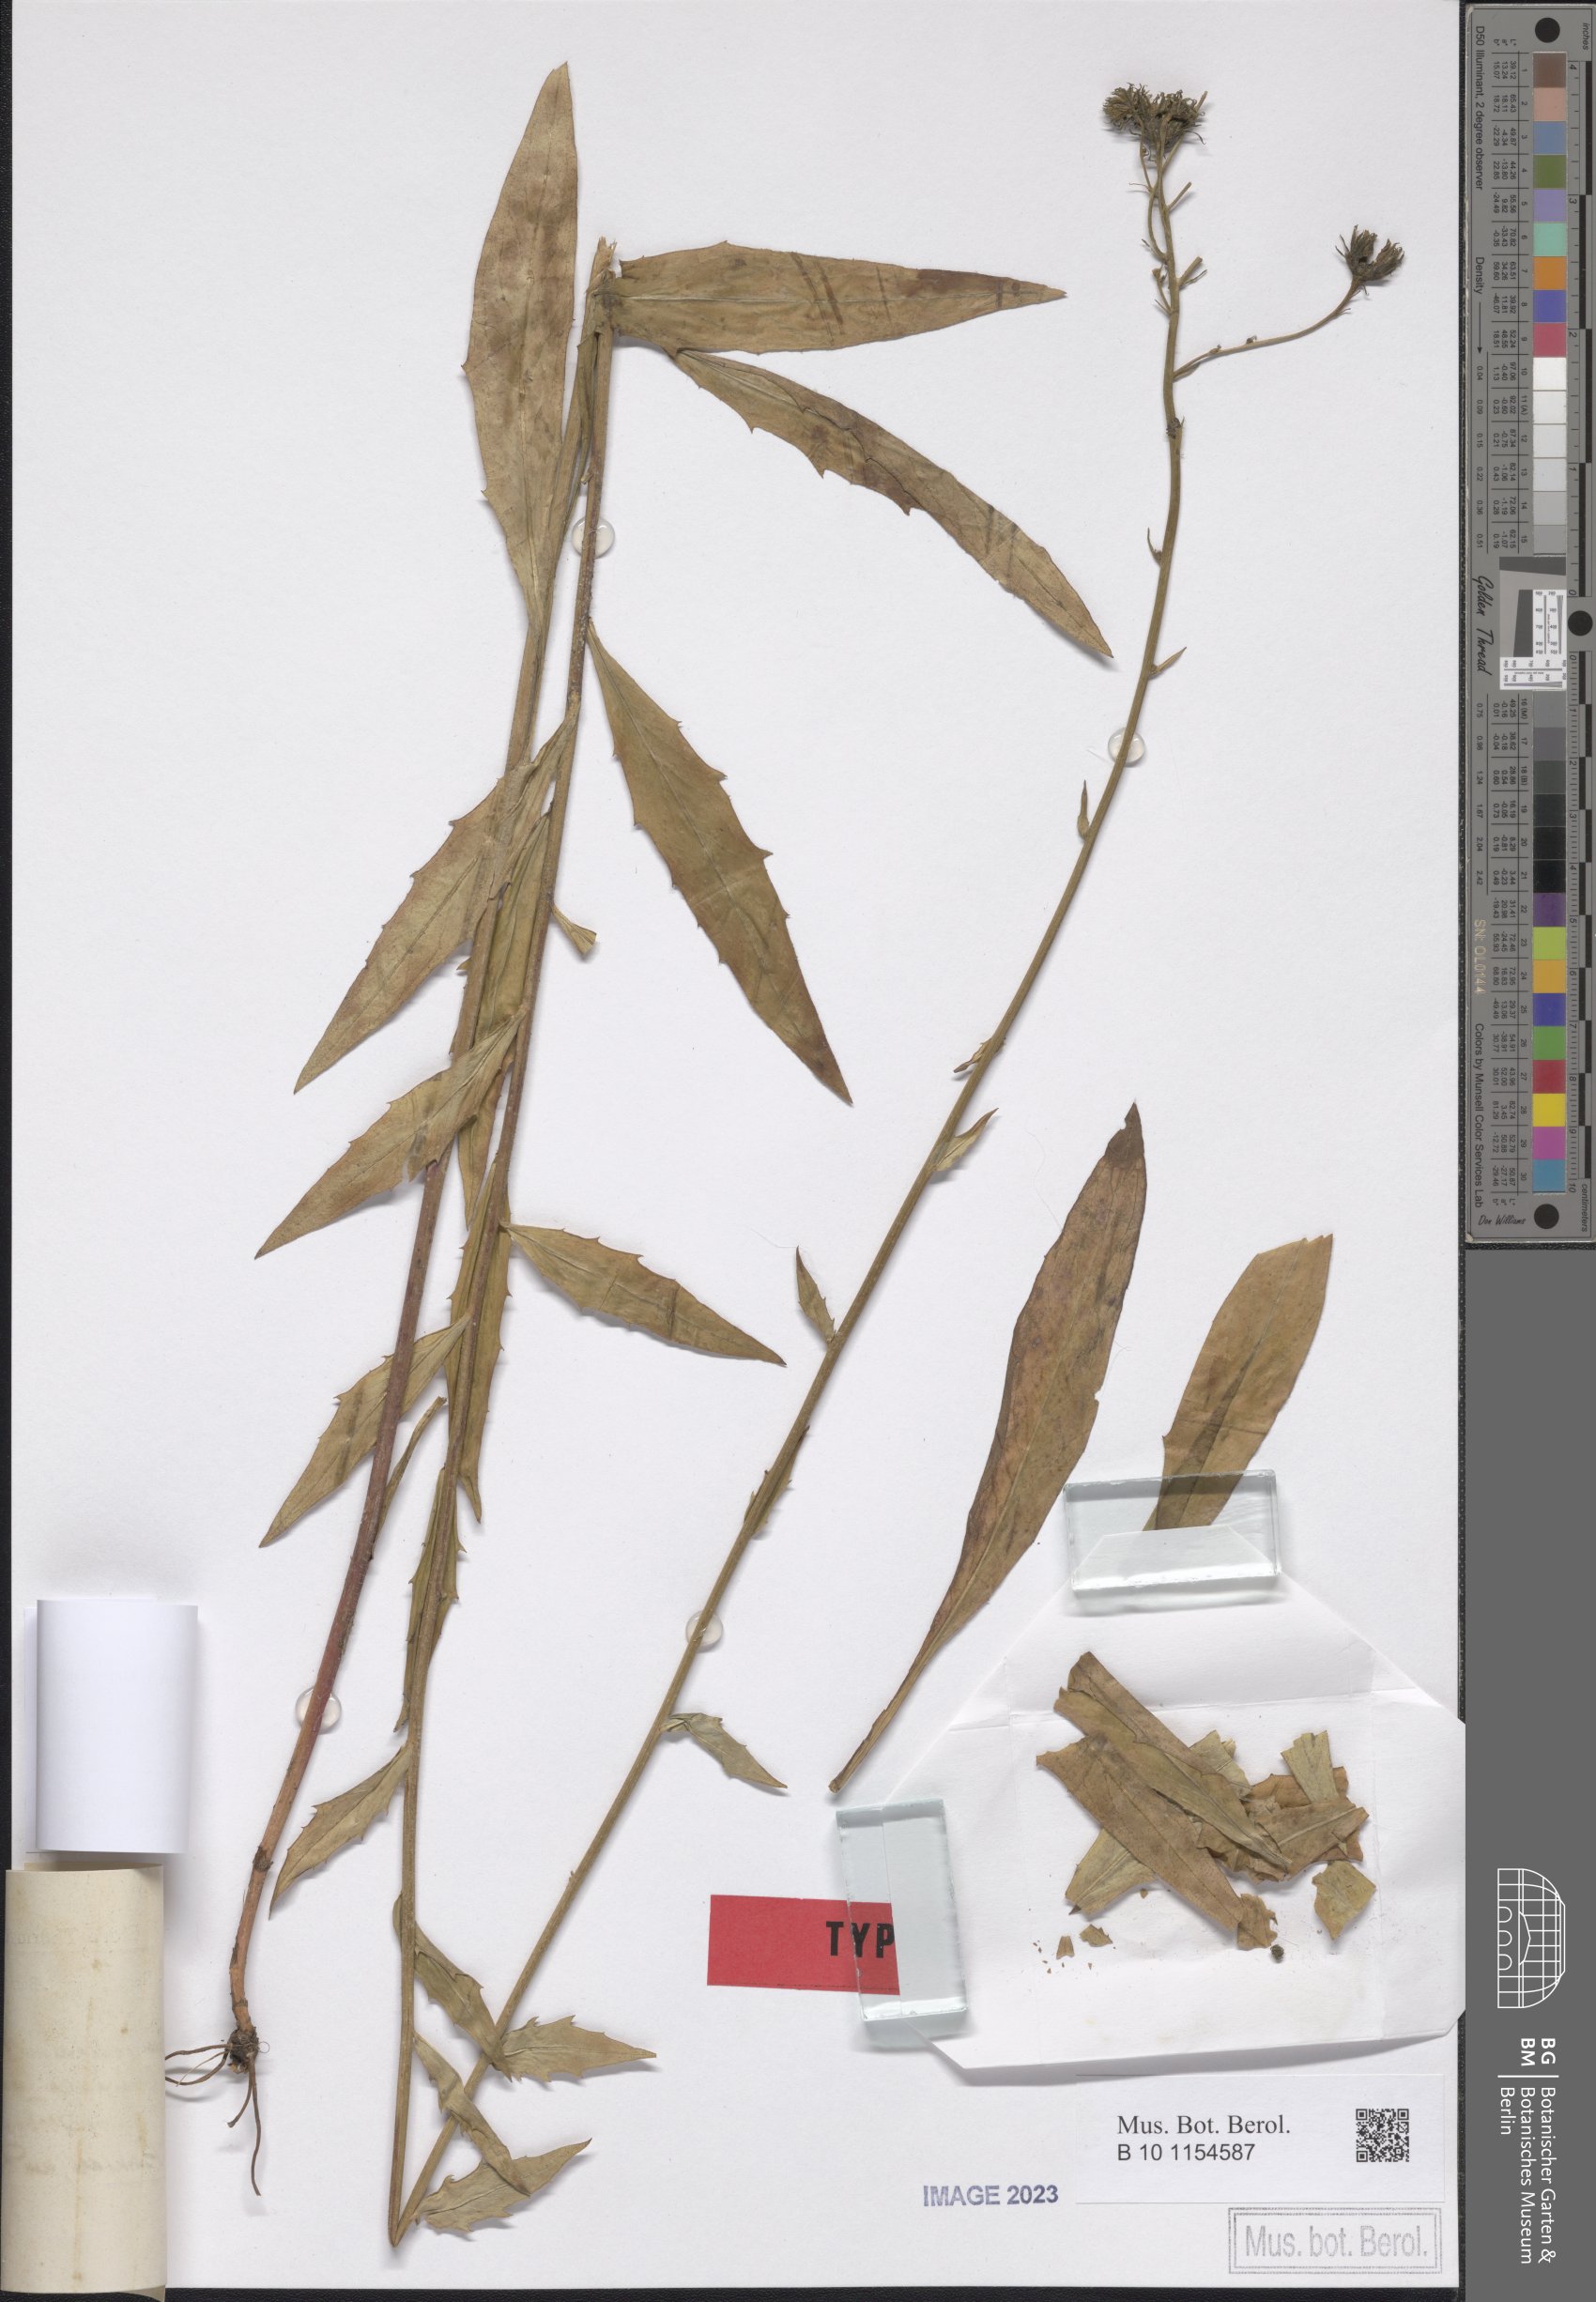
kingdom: Plantae
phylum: Tracheophyta
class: Magnoliopsida
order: Asterales
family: Asteraceae
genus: Hieracium
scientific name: Hieracium laevigatum
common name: Smooth hawkweed
